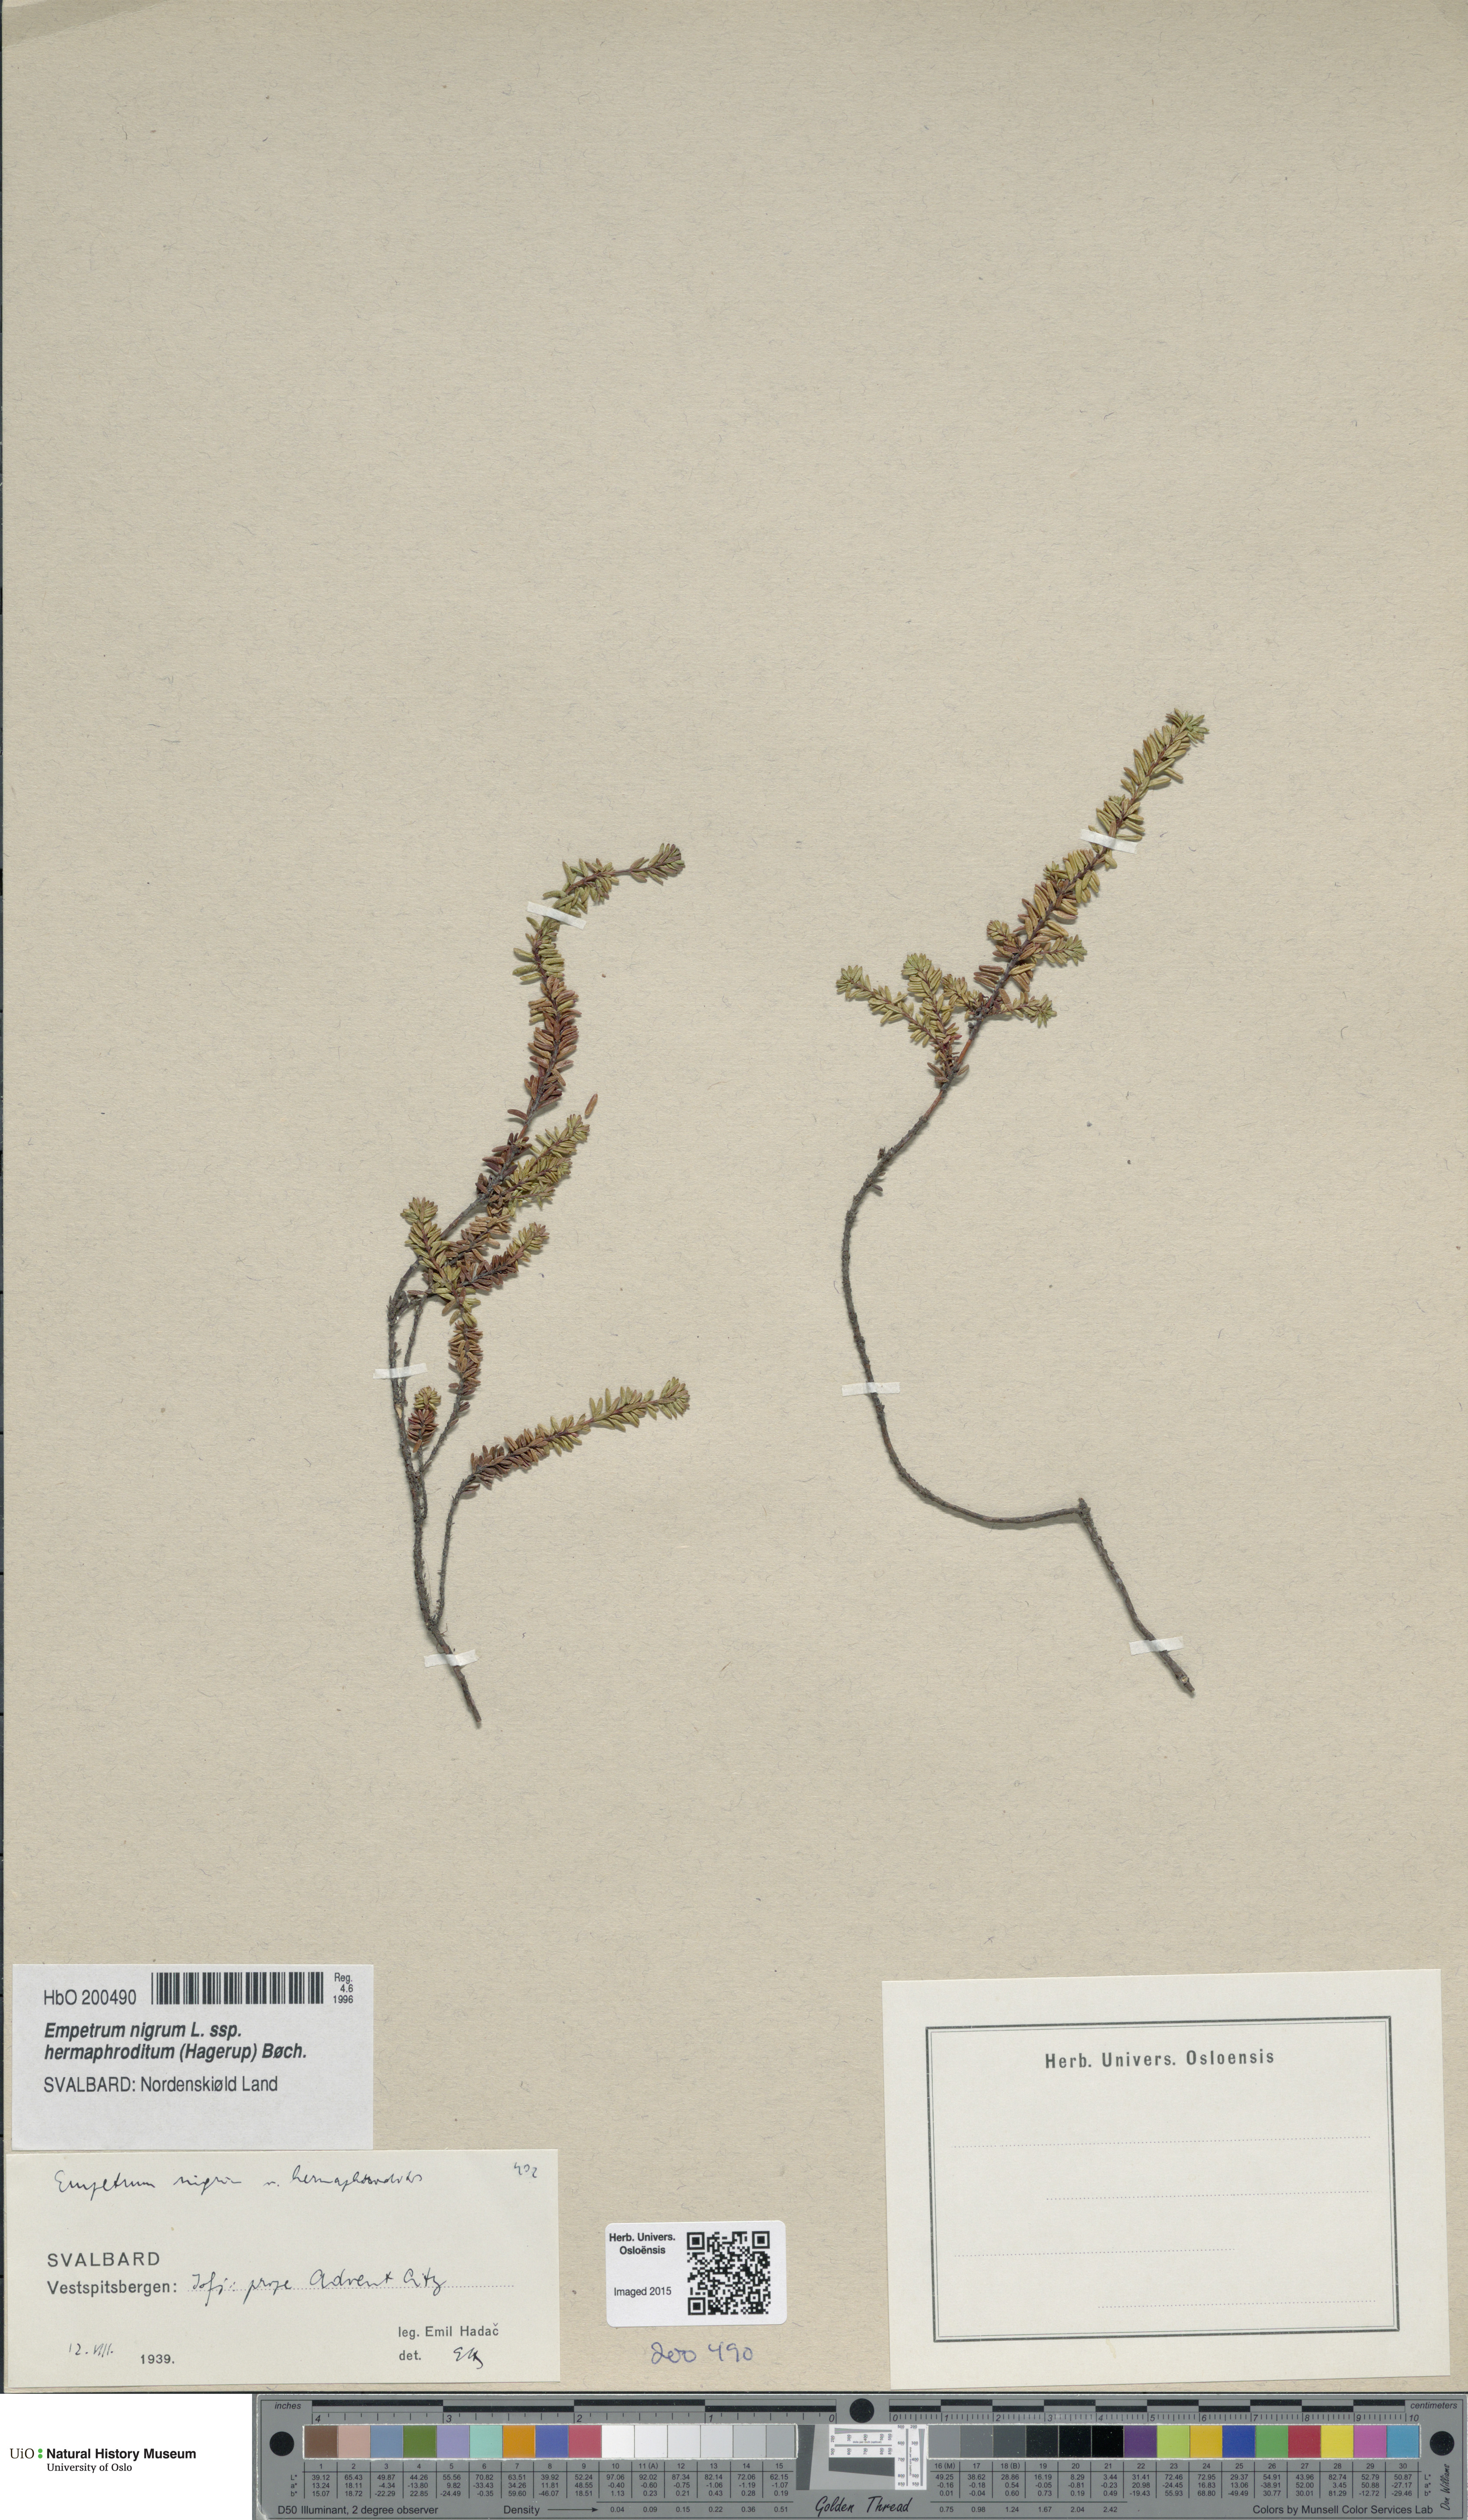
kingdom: Plantae
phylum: Tracheophyta
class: Magnoliopsida
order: Ericales
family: Ericaceae
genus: Empetrum
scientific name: Empetrum hermaphroditum
